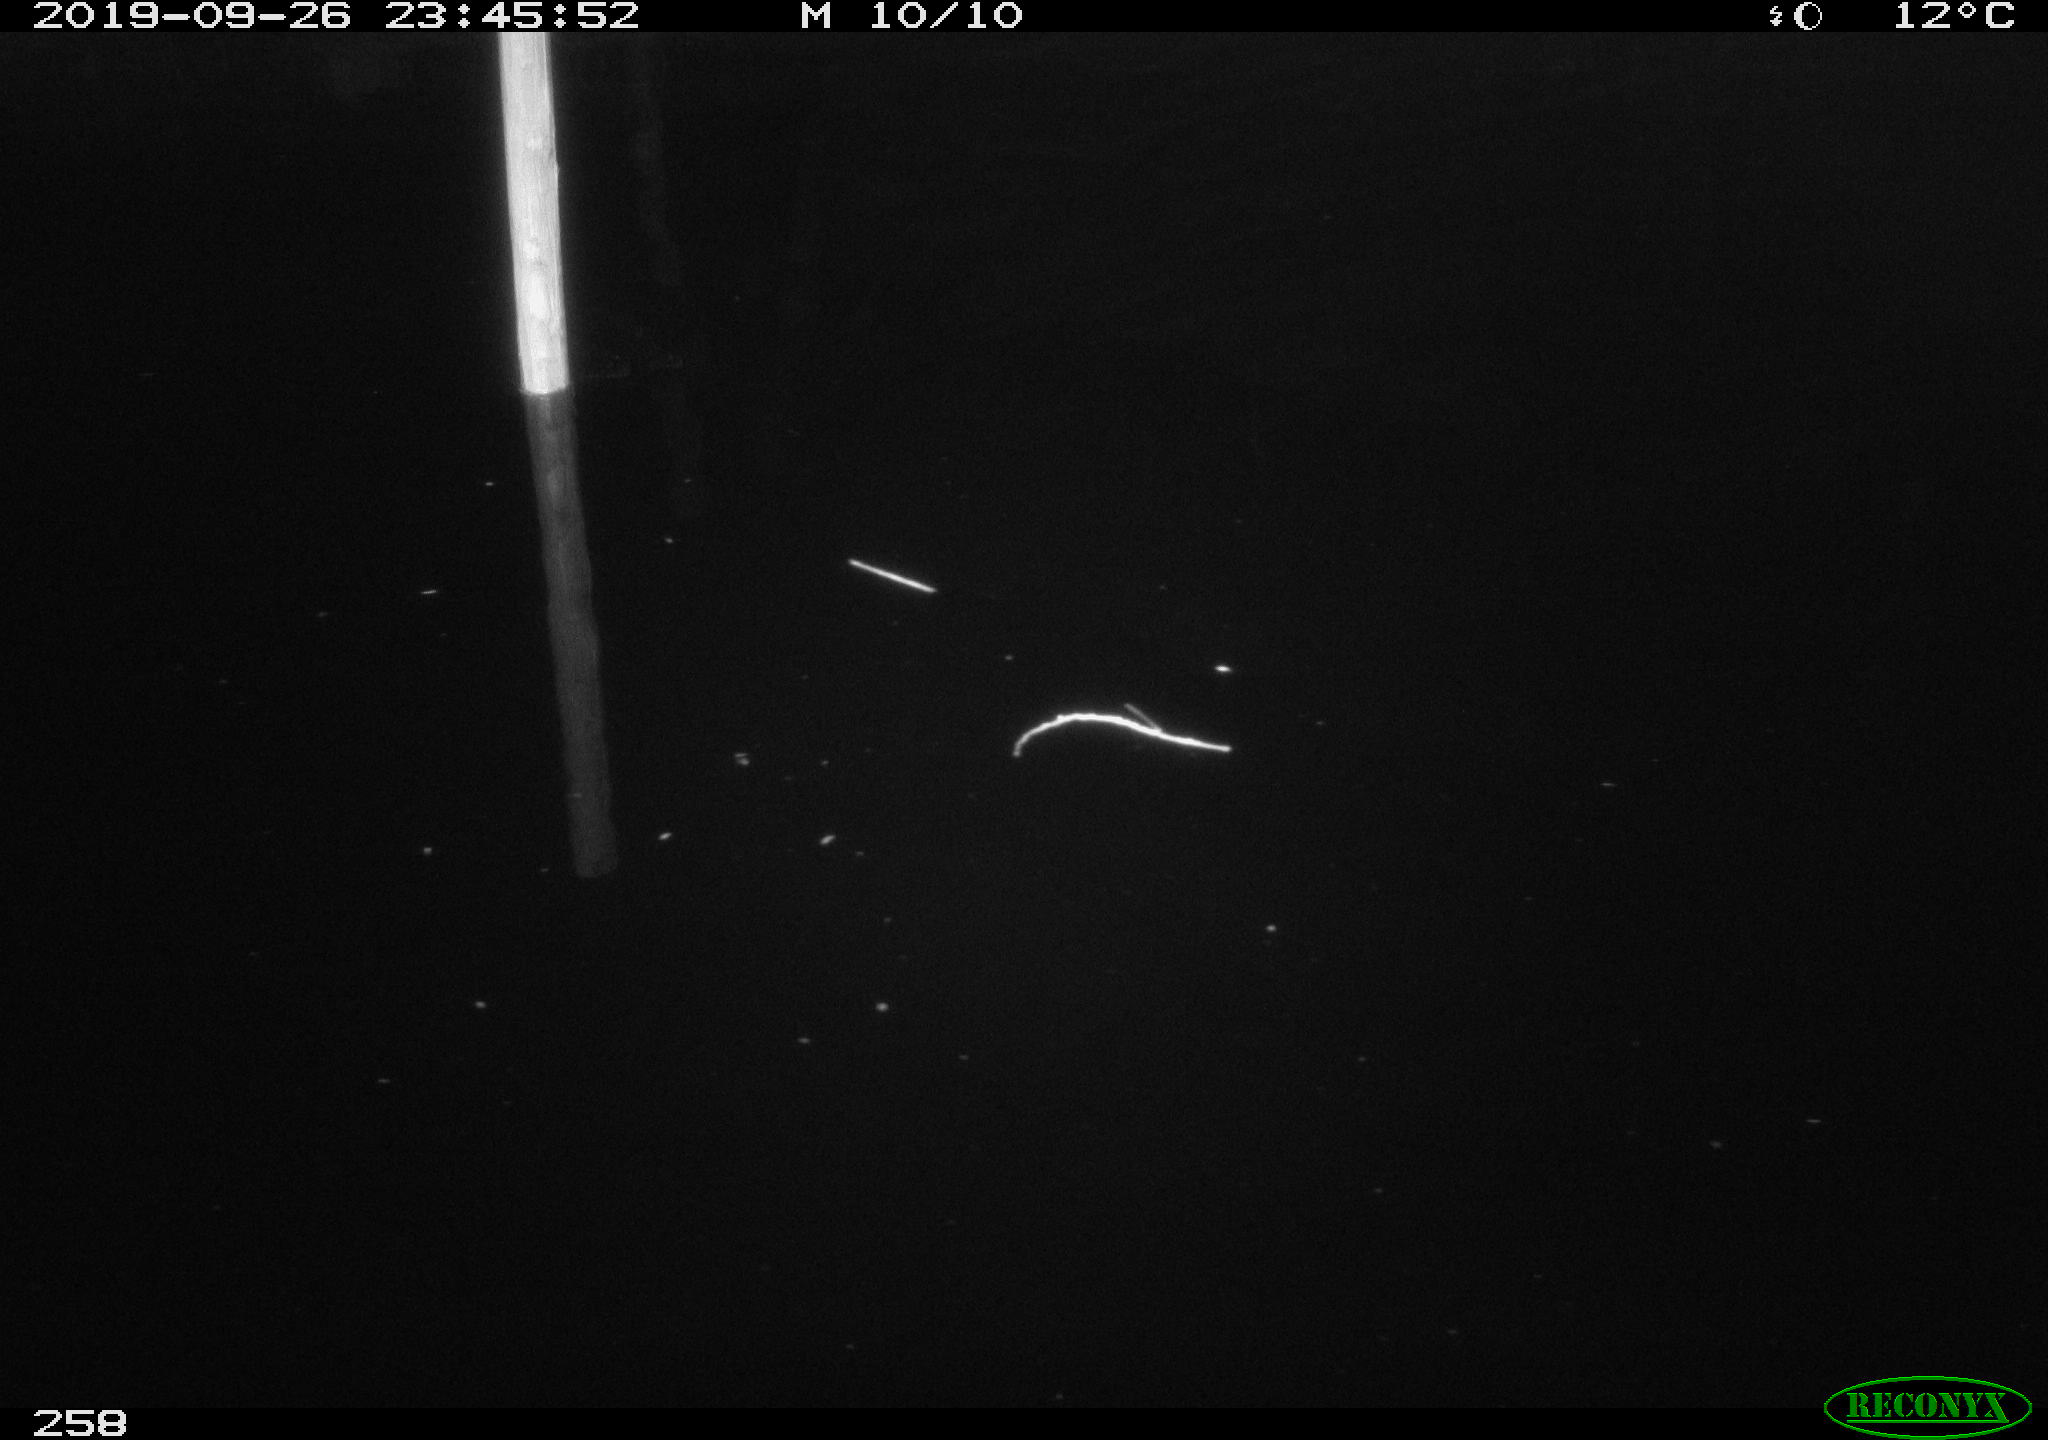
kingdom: Animalia
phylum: Chordata
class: Aves
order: Anseriformes
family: Anatidae
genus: Anas
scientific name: Anas platyrhynchos
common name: Mallard
